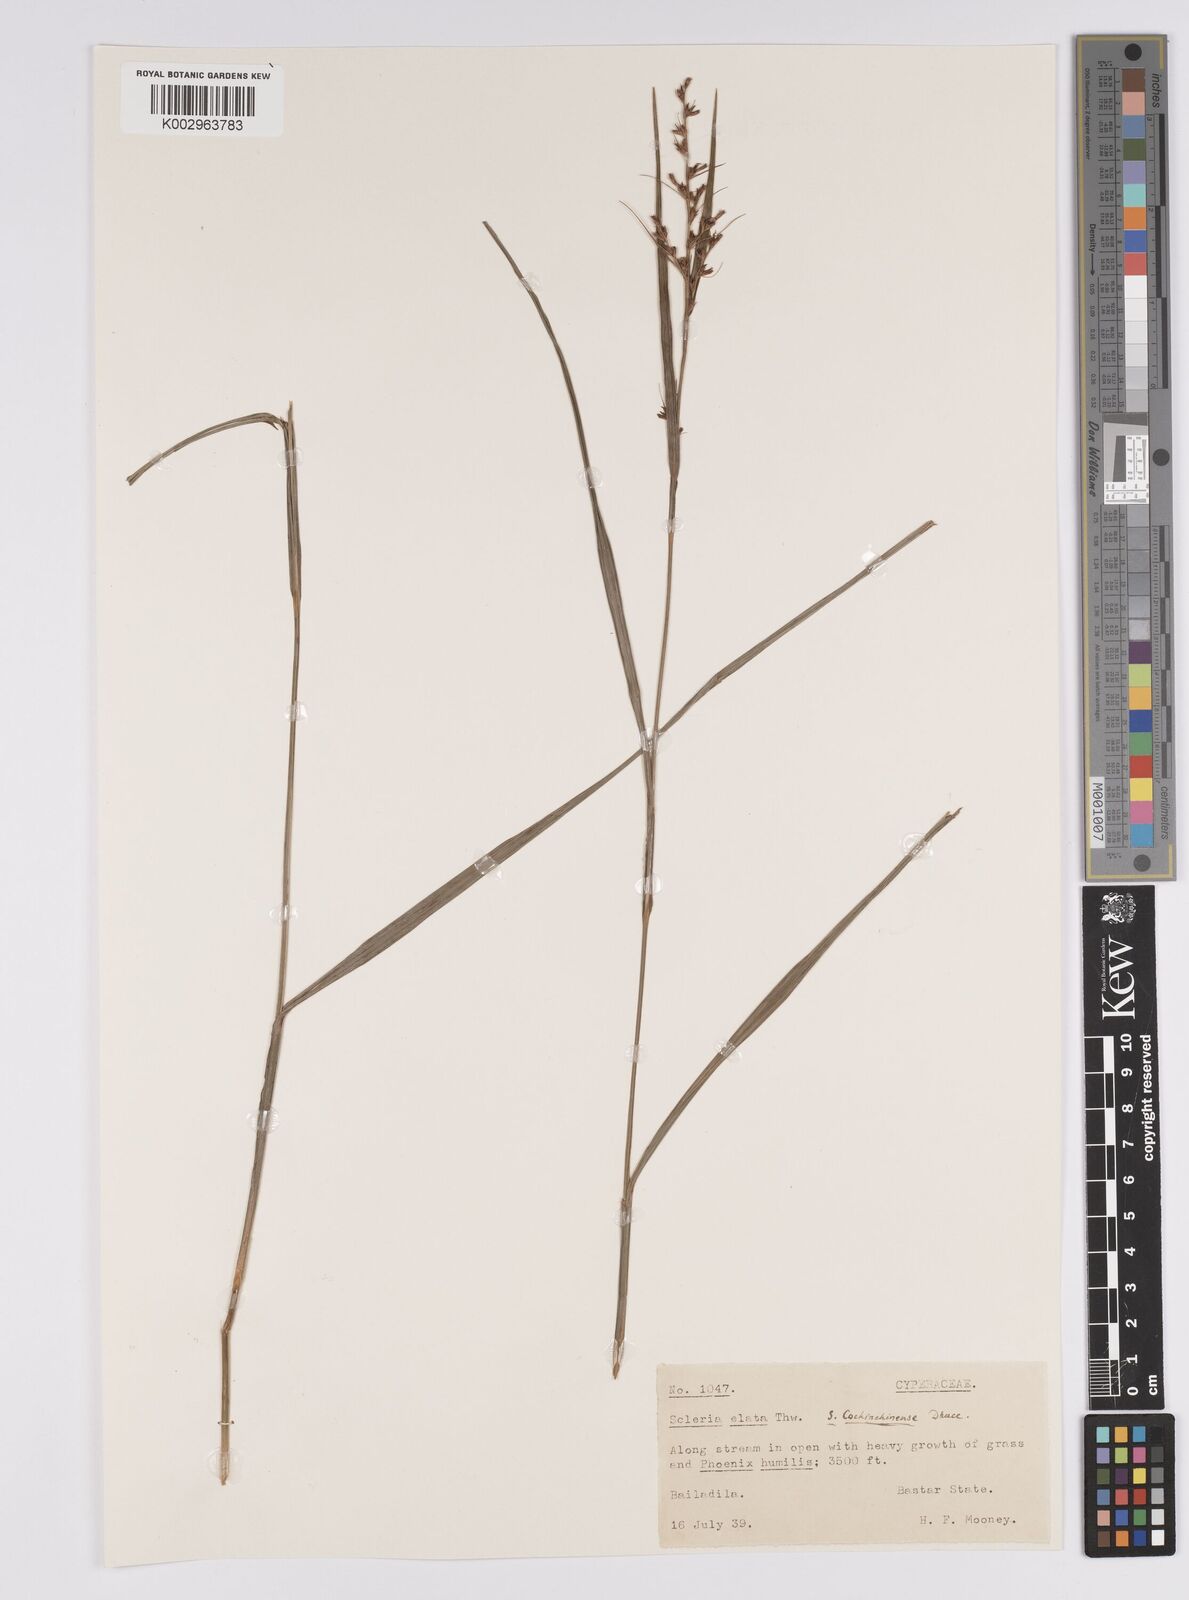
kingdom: Plantae
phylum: Tracheophyta
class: Liliopsida
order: Poales
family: Cyperaceae
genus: Scleria
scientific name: Scleria terrestris
